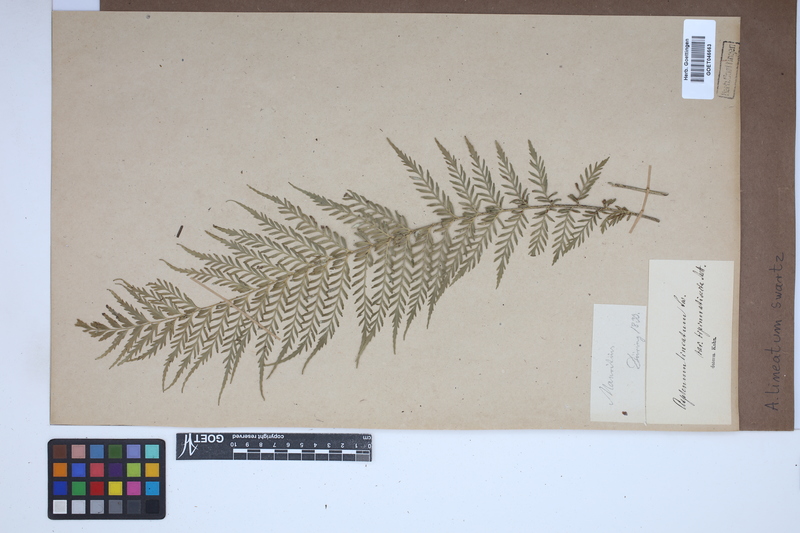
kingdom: Plantae
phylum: Tracheophyta
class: Polypodiopsida
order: Polypodiales
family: Aspleniaceae
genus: Asplenium
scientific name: Asplenium daucifolium
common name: Mauritius spleenwort
